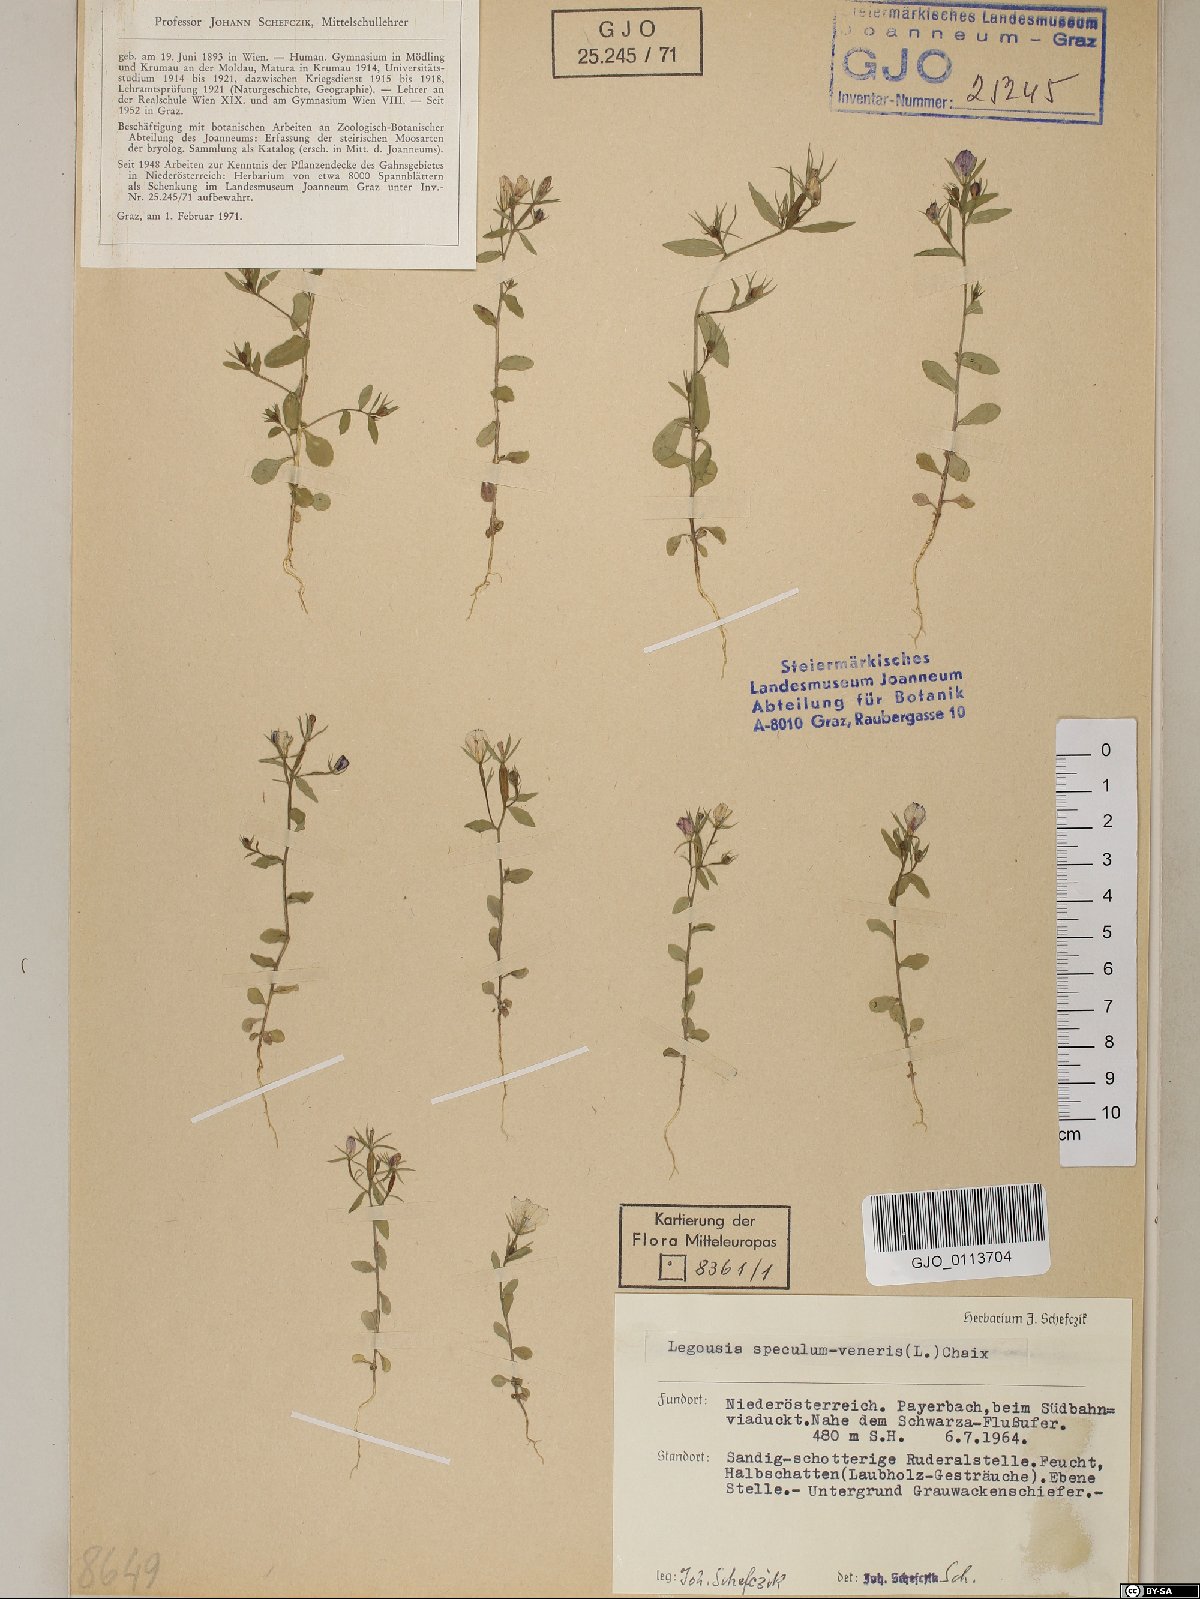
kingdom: Plantae
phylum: Tracheophyta
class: Magnoliopsida
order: Asterales
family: Campanulaceae
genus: Legousia
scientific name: Legousia speculum-veneris
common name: Large venus's-looking-glass
